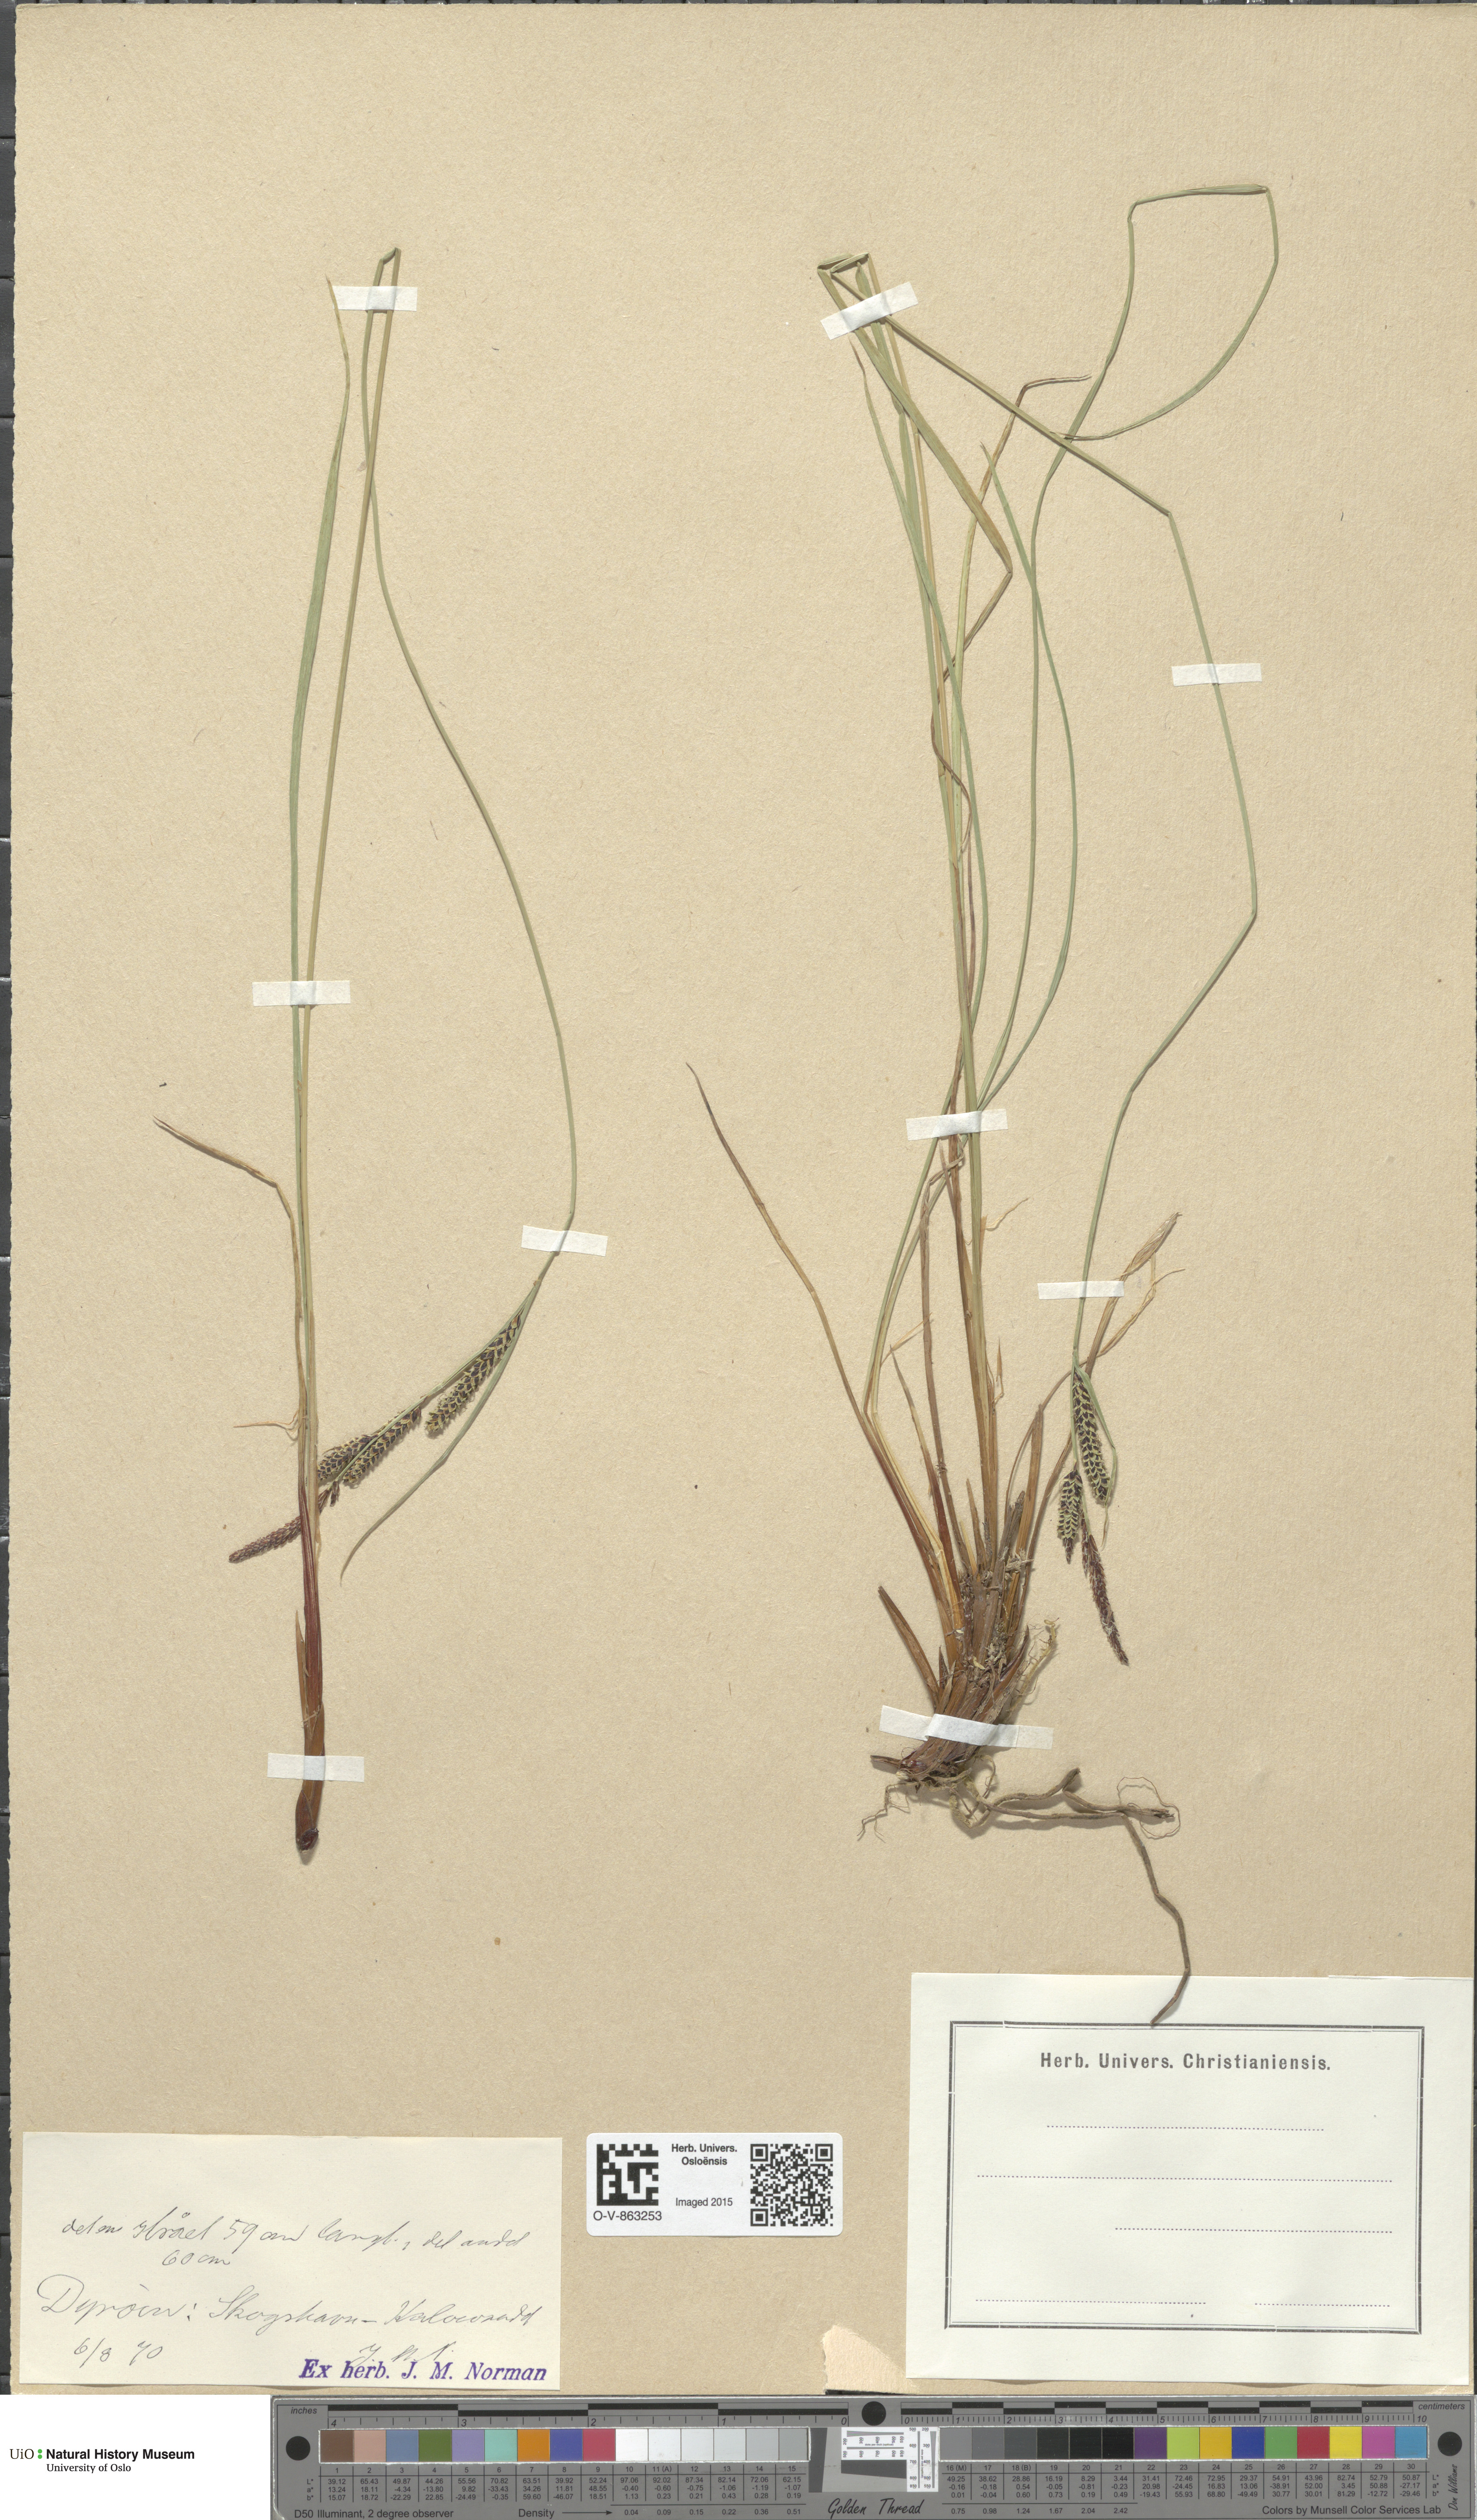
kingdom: Plantae
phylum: Tracheophyta
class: Liliopsida
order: Poales
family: Cyperaceae
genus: Carex
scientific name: Carex nigra
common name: Common sedge
